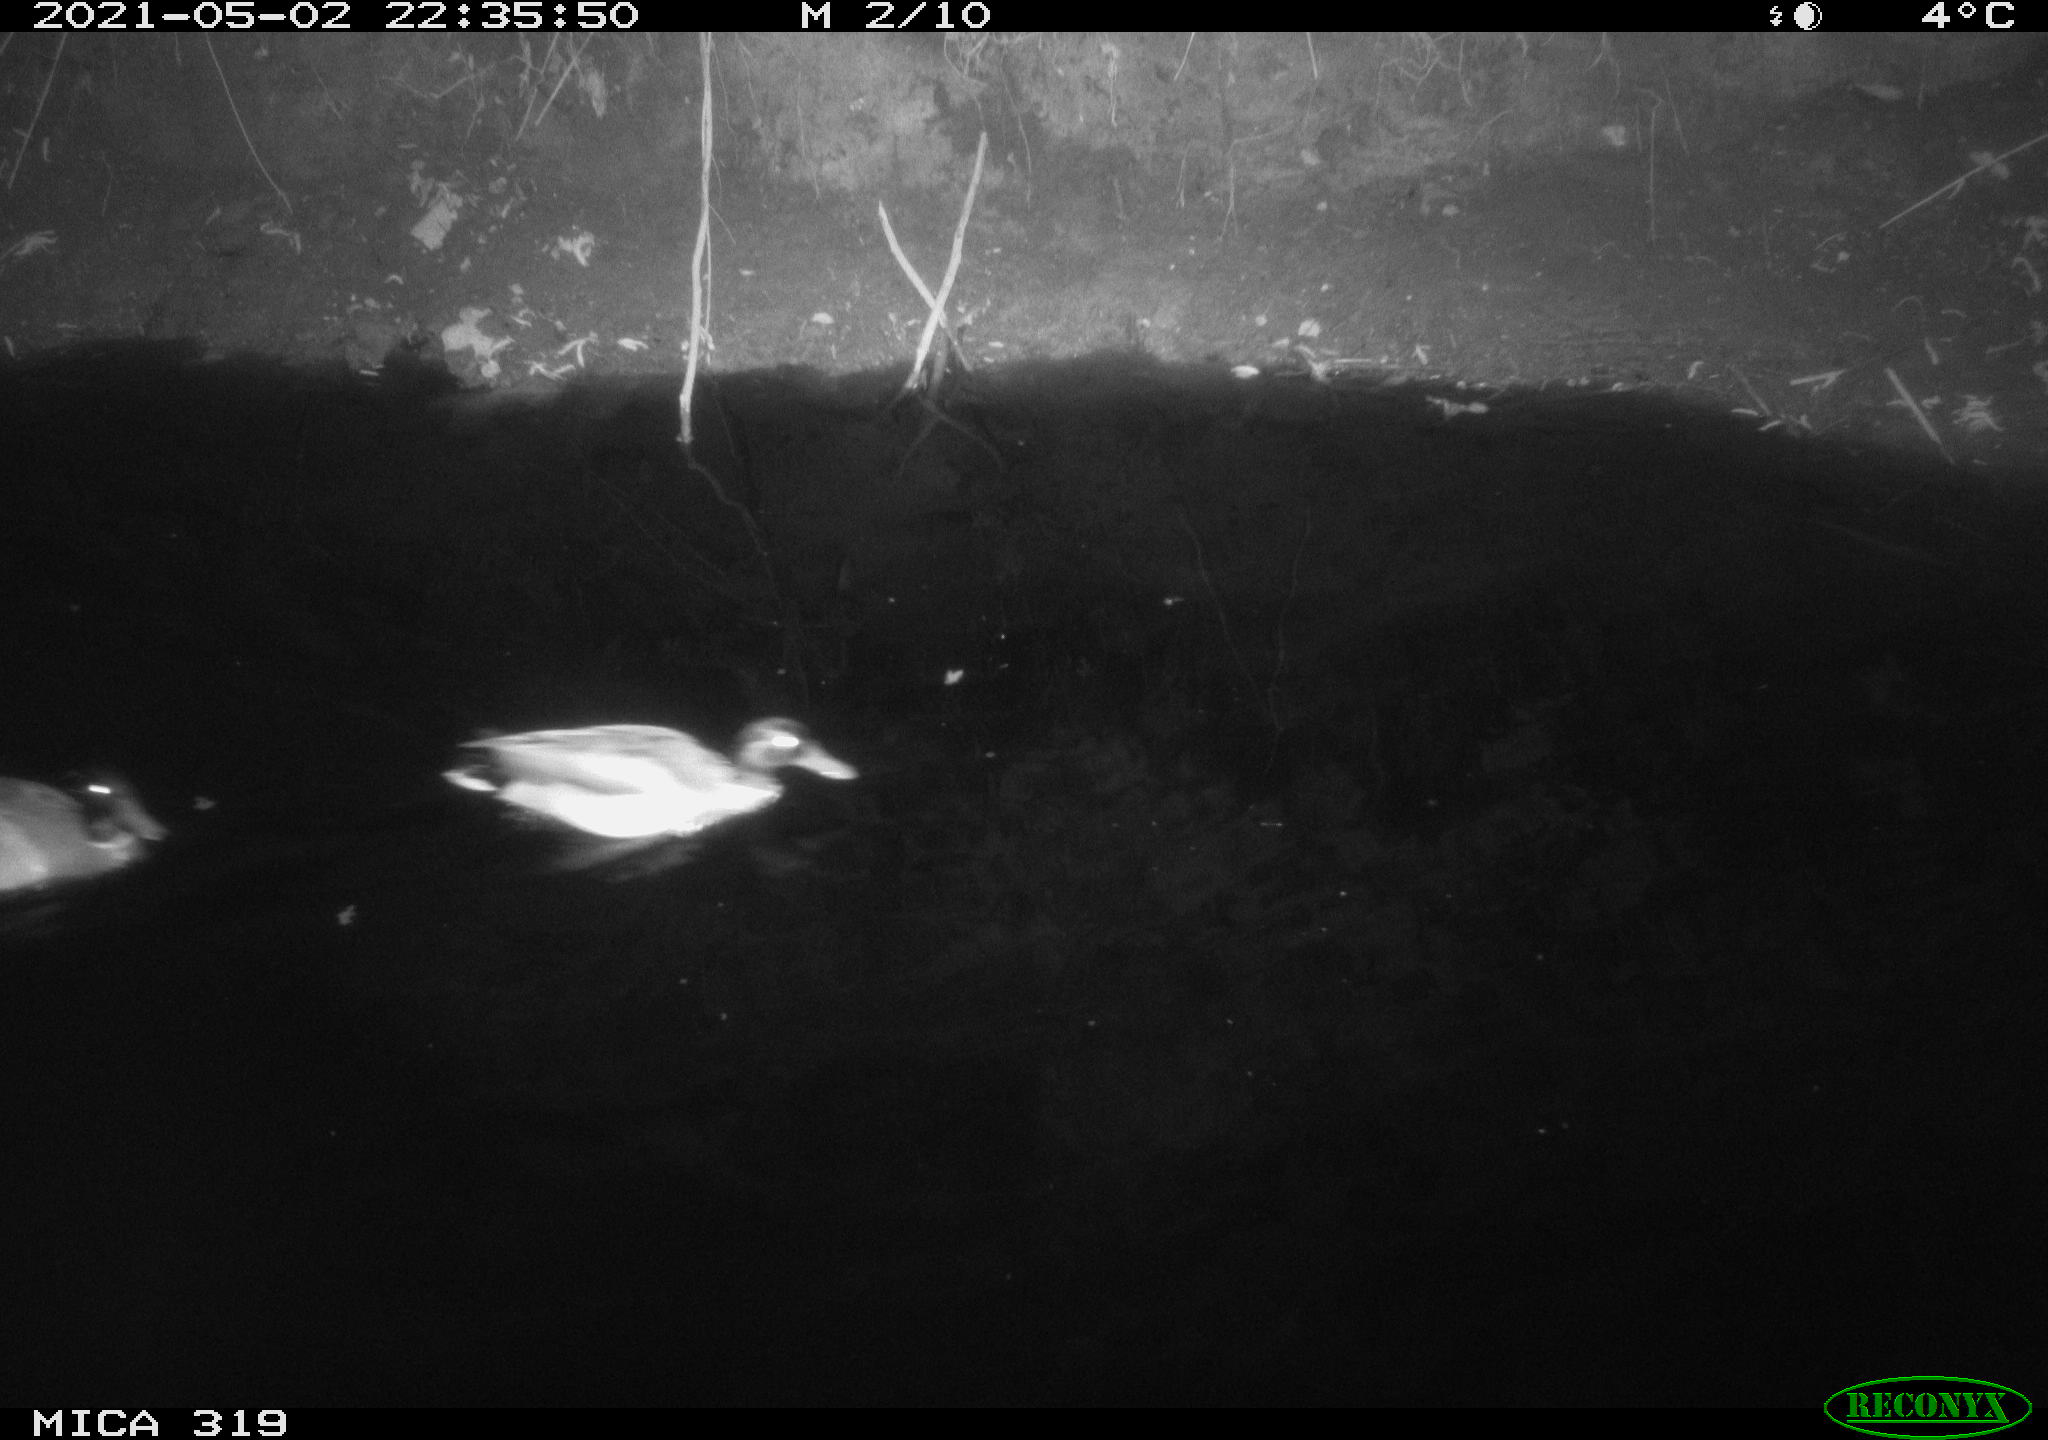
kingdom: Animalia
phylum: Chordata
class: Aves
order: Anseriformes
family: Anatidae
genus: Anas
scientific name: Anas platyrhynchos
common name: Mallard
